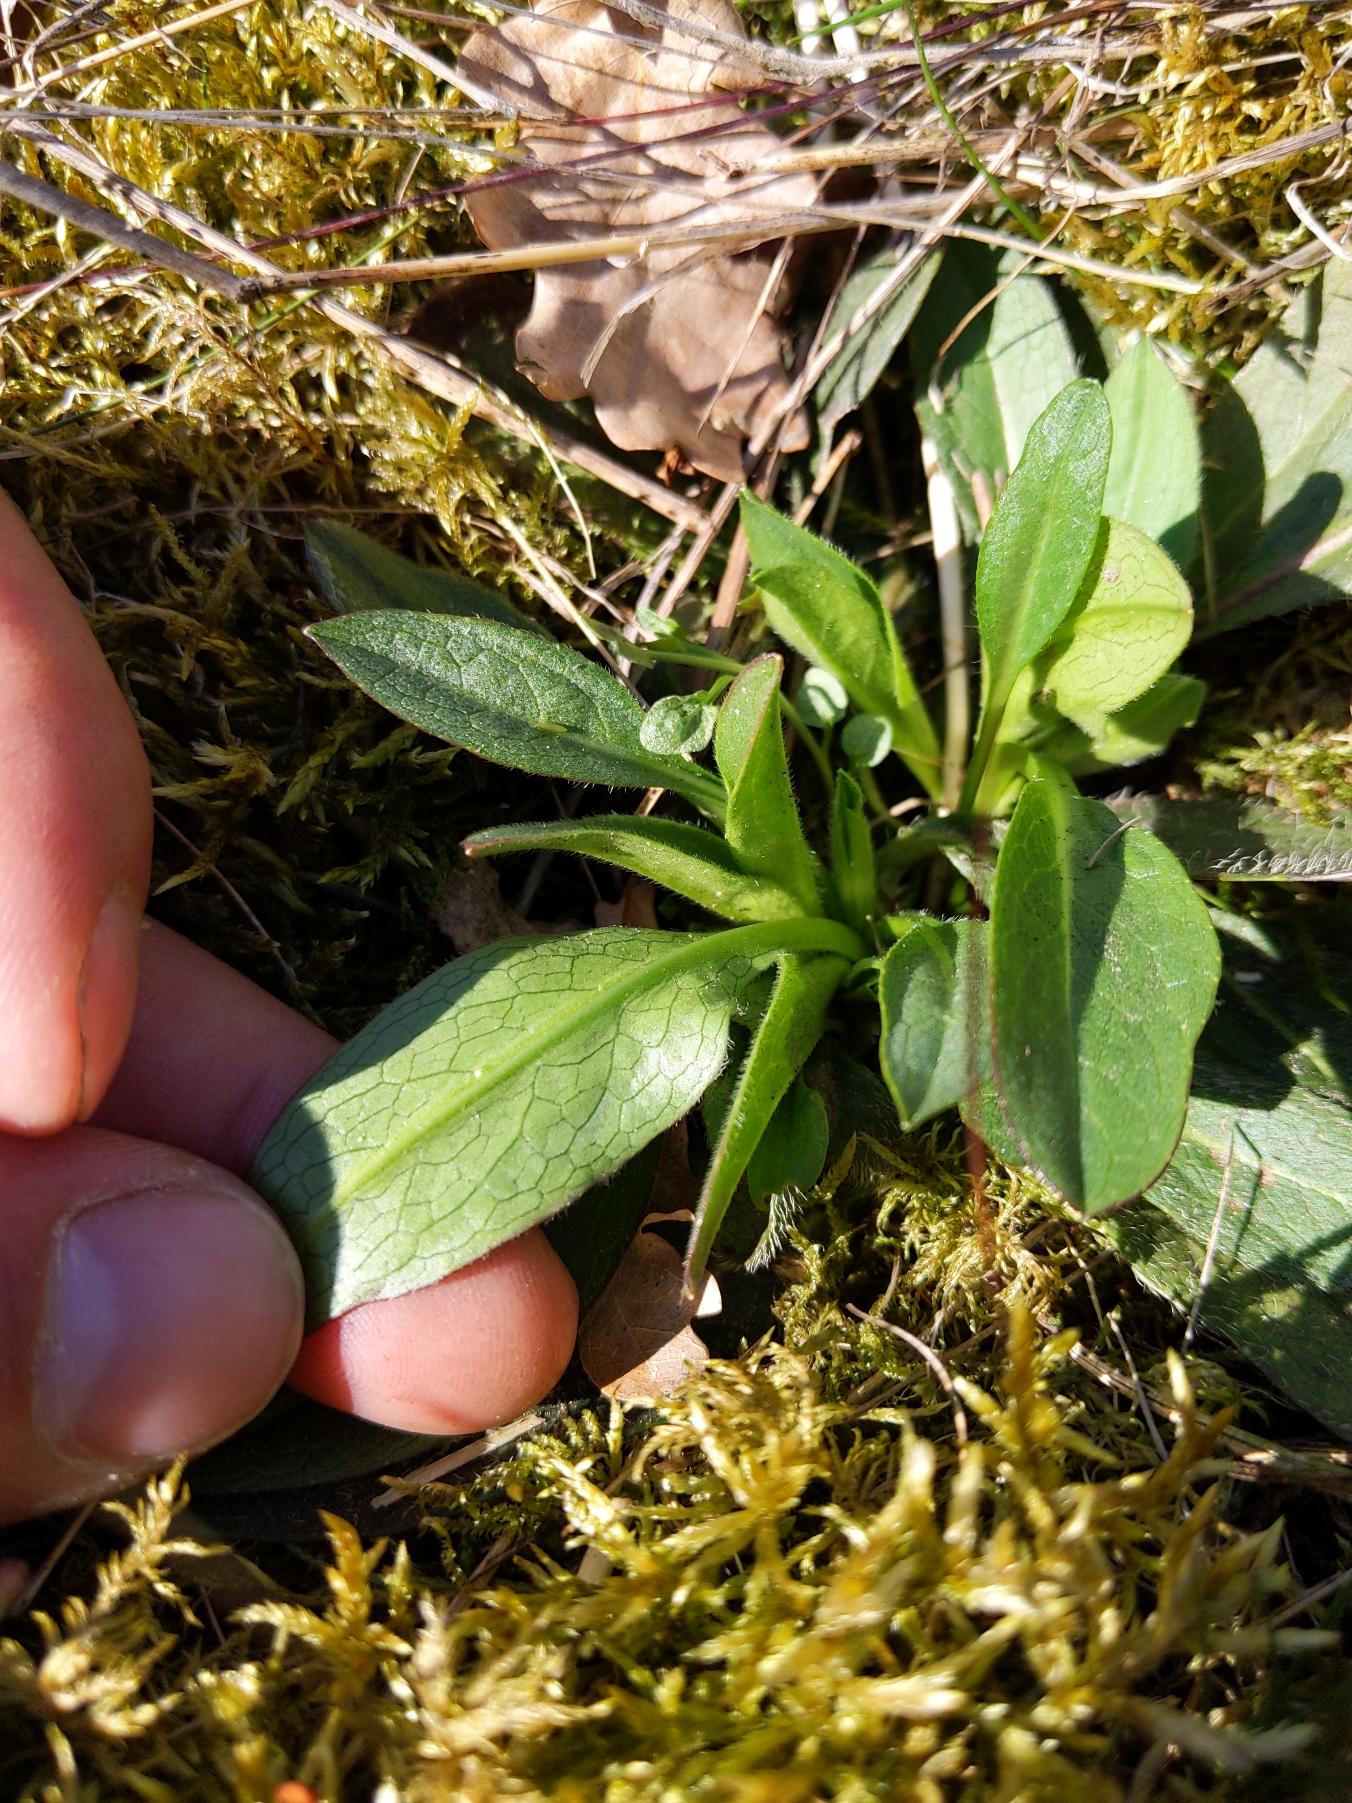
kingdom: Plantae
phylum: Tracheophyta
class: Magnoliopsida
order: Dipsacales
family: Caprifoliaceae
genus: Succisa
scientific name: Succisa pratensis
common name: Djævelsbid
